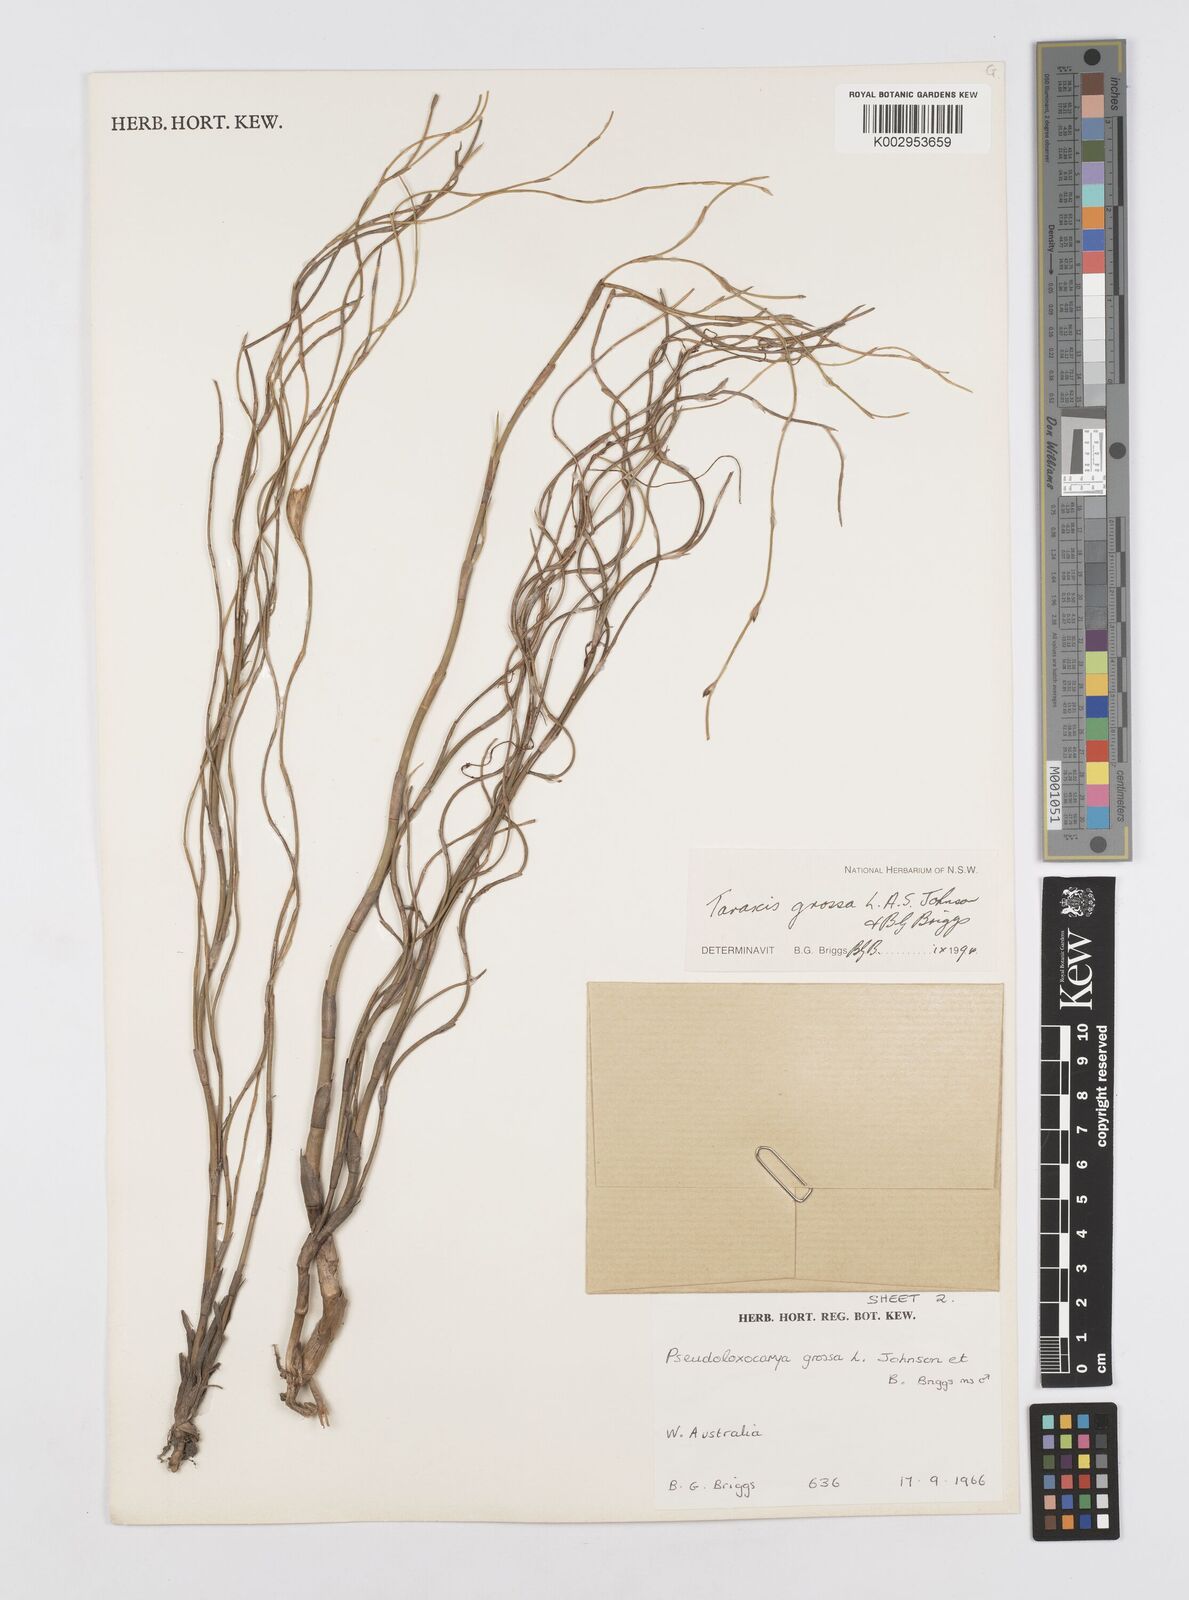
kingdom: Plantae
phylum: Tracheophyta
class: Liliopsida
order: Poales
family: Restionaceae
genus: Taraxis
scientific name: Taraxis grossa
